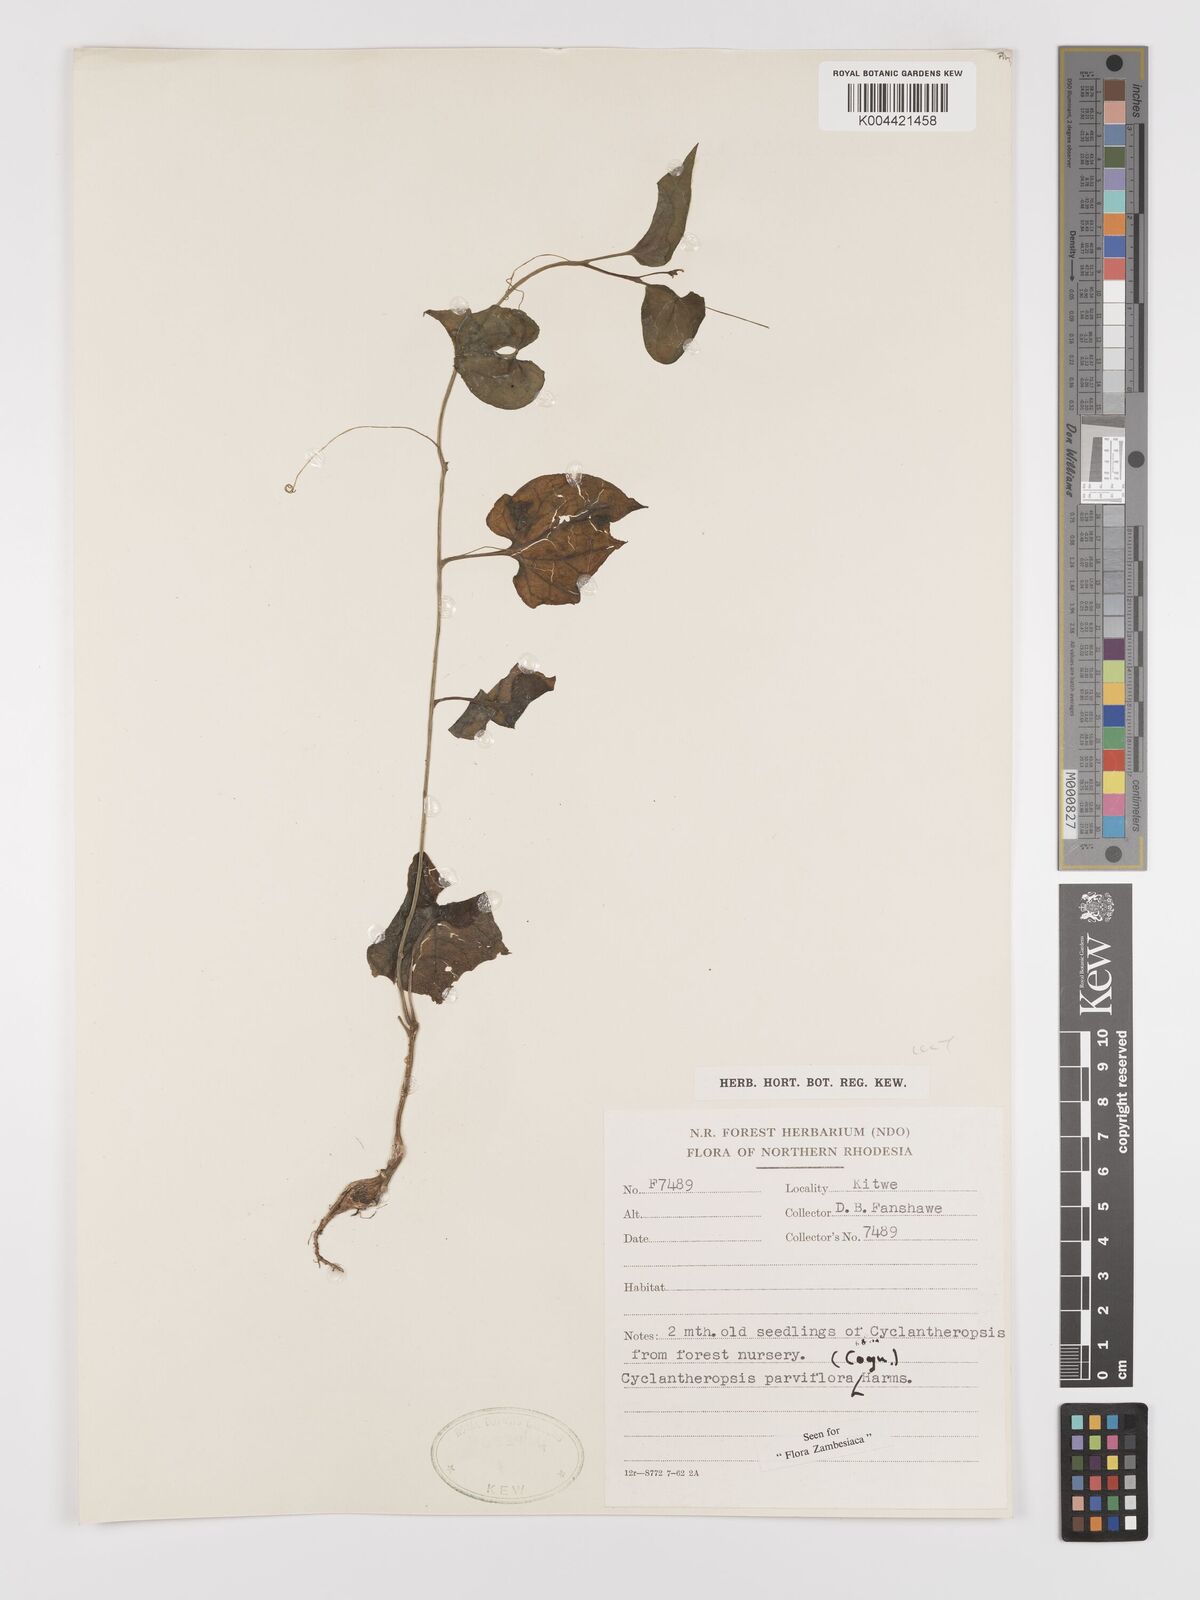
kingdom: Plantae
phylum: Tracheophyta
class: Magnoliopsida
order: Cucurbitales
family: Cucurbitaceae
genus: Cyclantheropsis
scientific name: Cyclantheropsis parviflora
